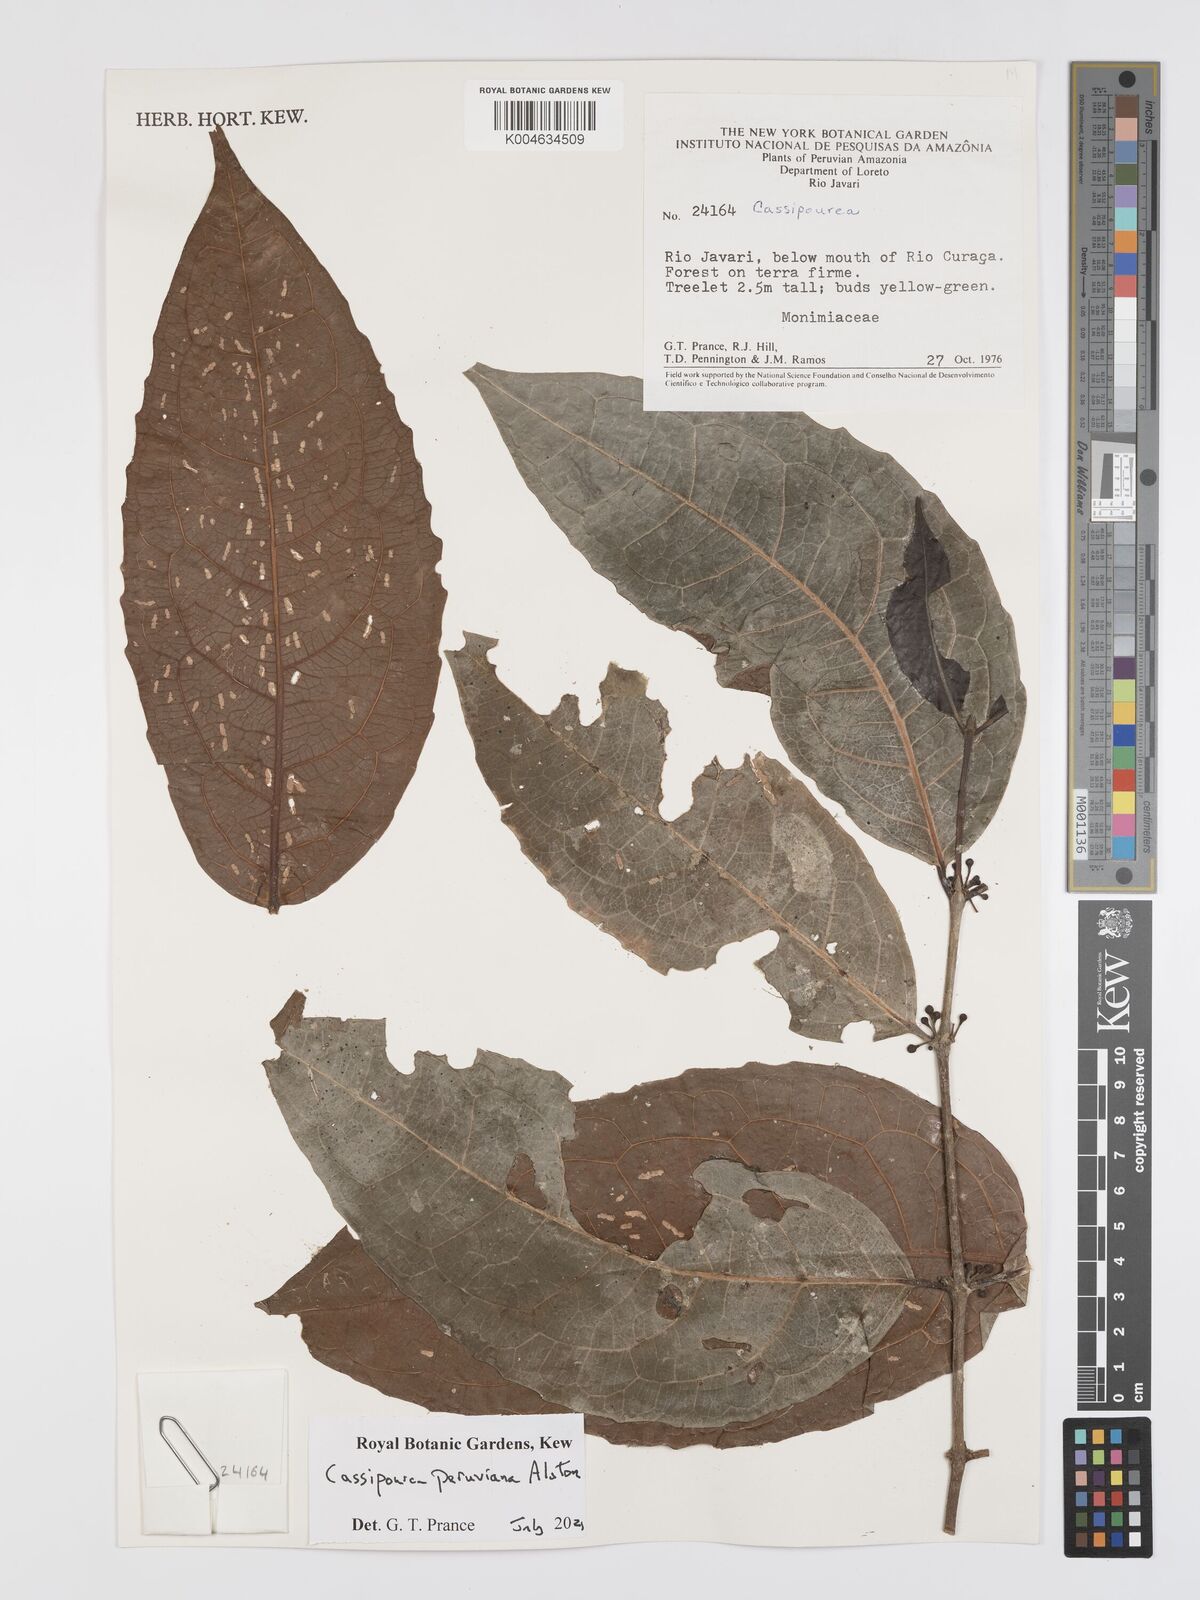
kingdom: Plantae
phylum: Tracheophyta
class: Magnoliopsida
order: Malpighiales
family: Rhizophoraceae
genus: Cassipourea
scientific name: Cassipourea peruviana
